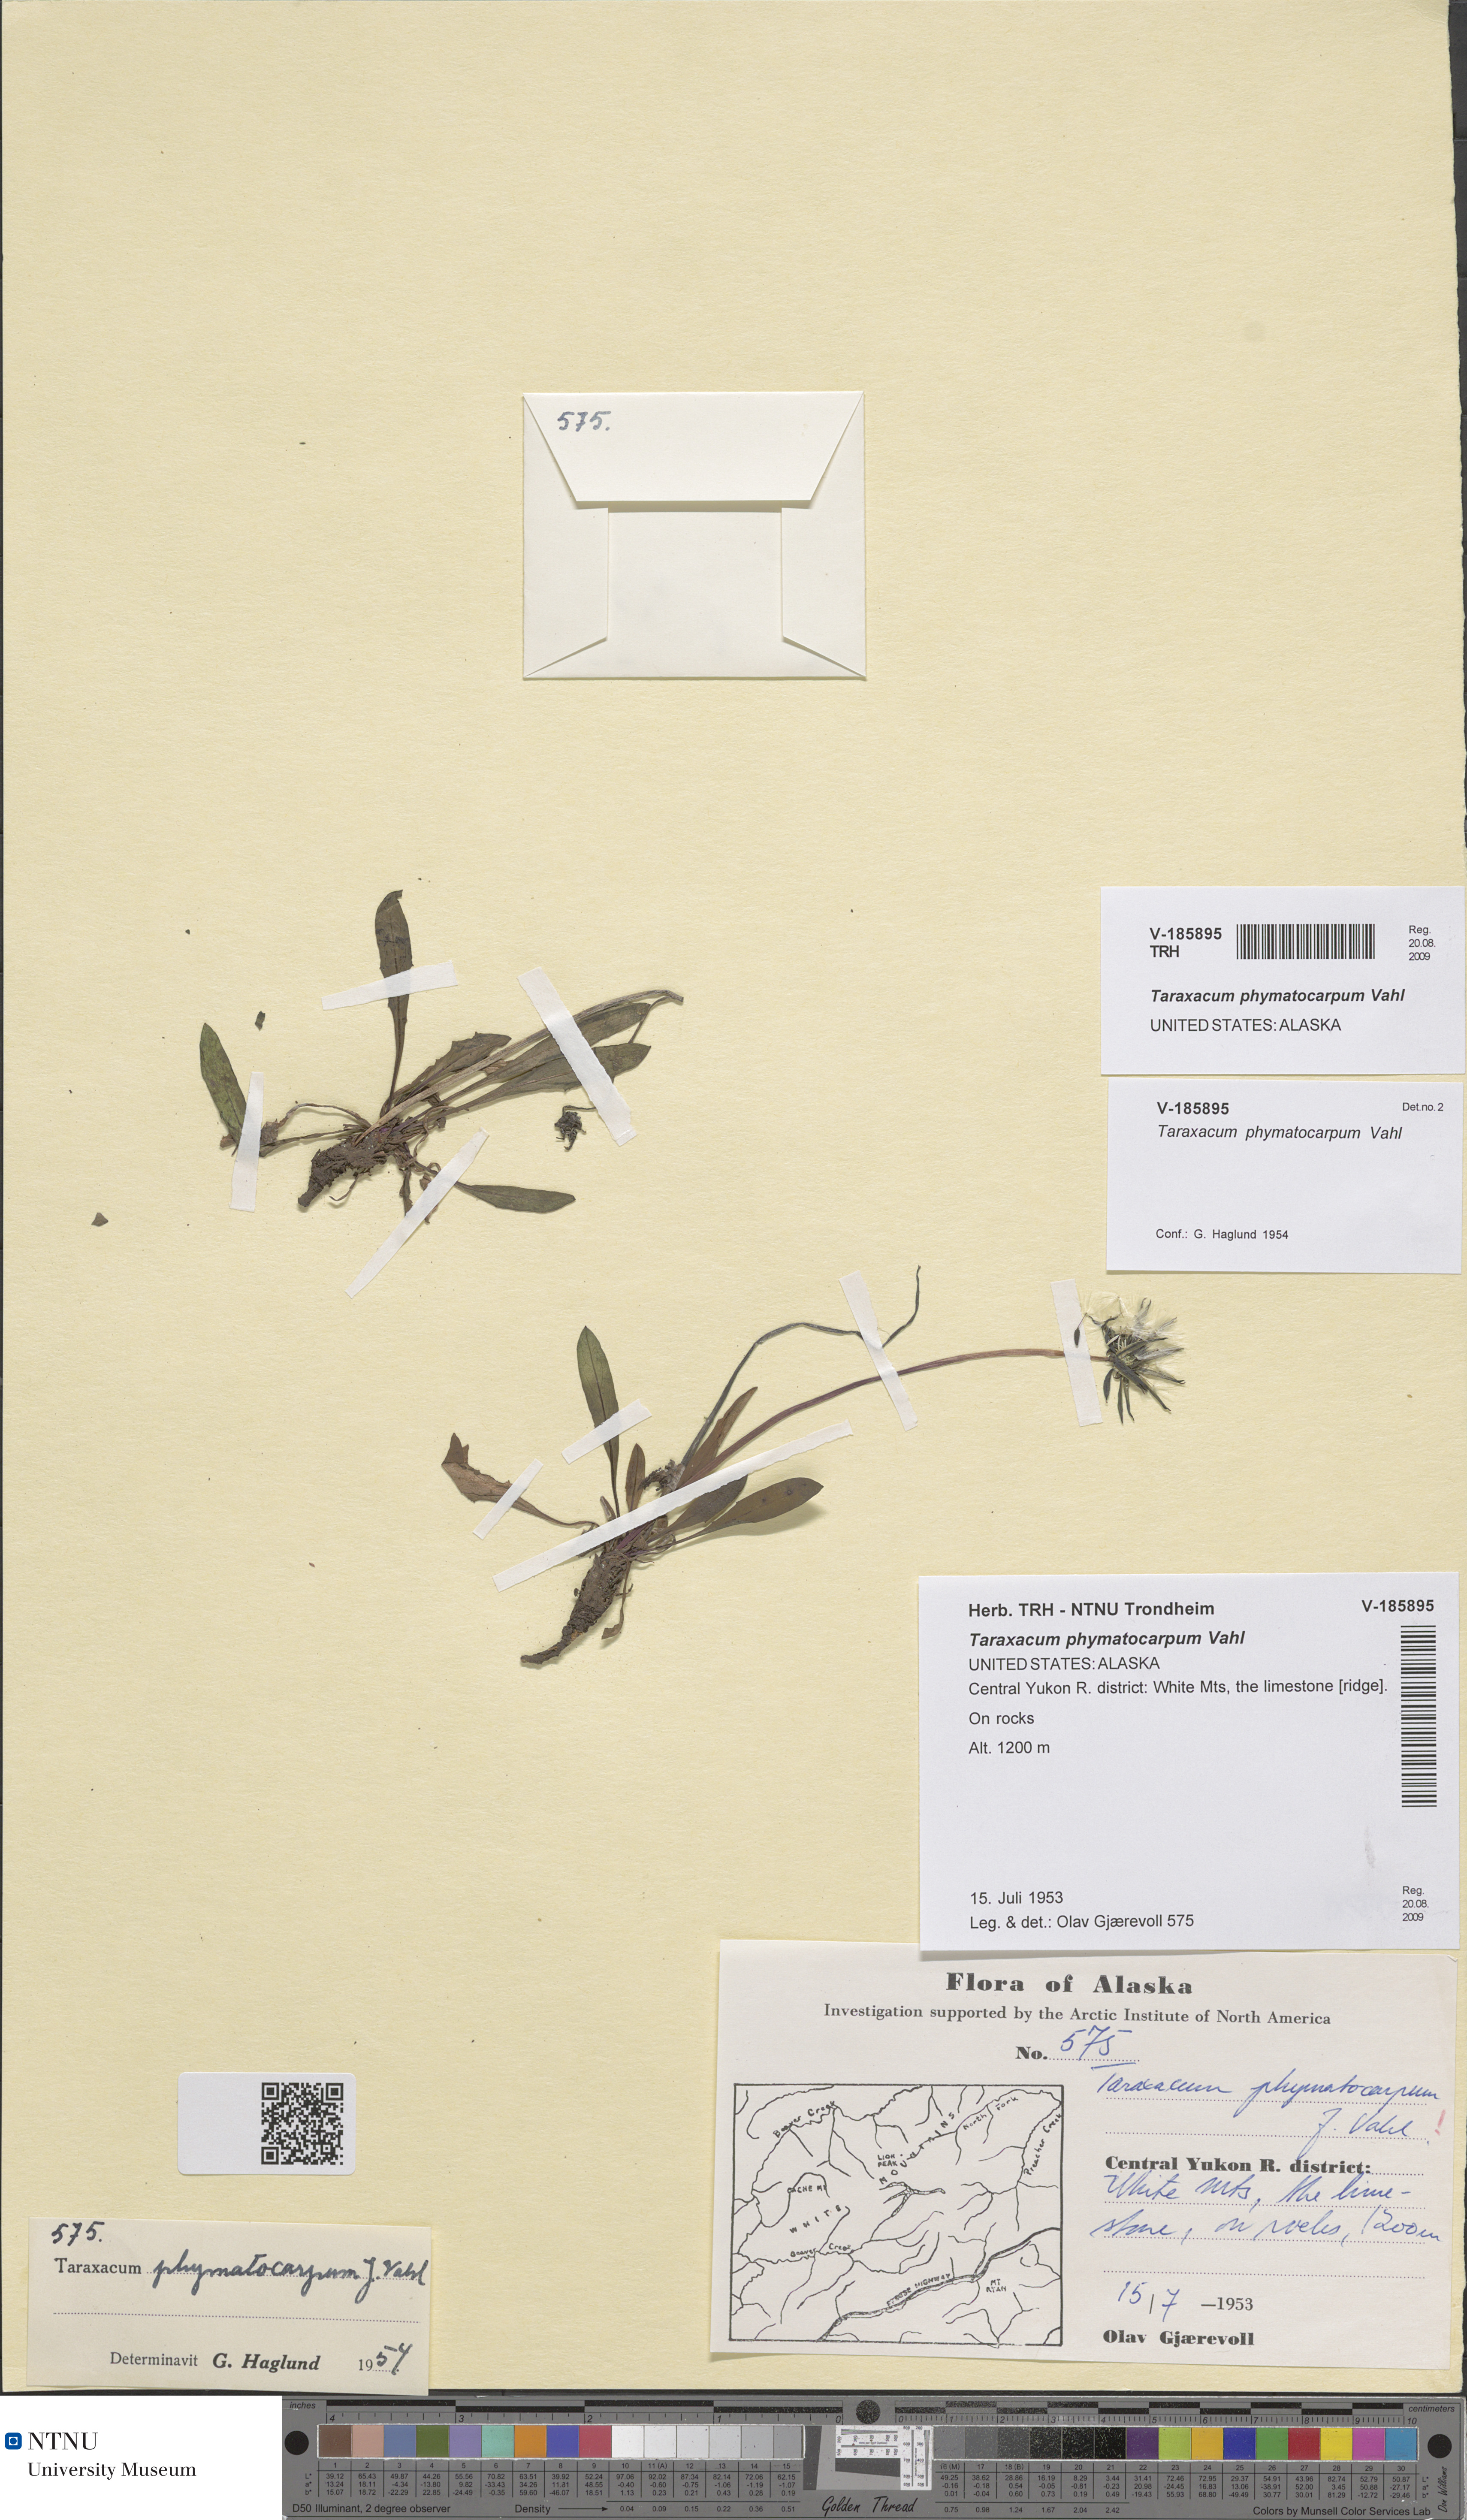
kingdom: Plantae
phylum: Tracheophyta
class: Magnoliopsida
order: Asterales
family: Asteraceae
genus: Taraxacum
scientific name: Taraxacum phymatocarpum
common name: Harp dandelion
